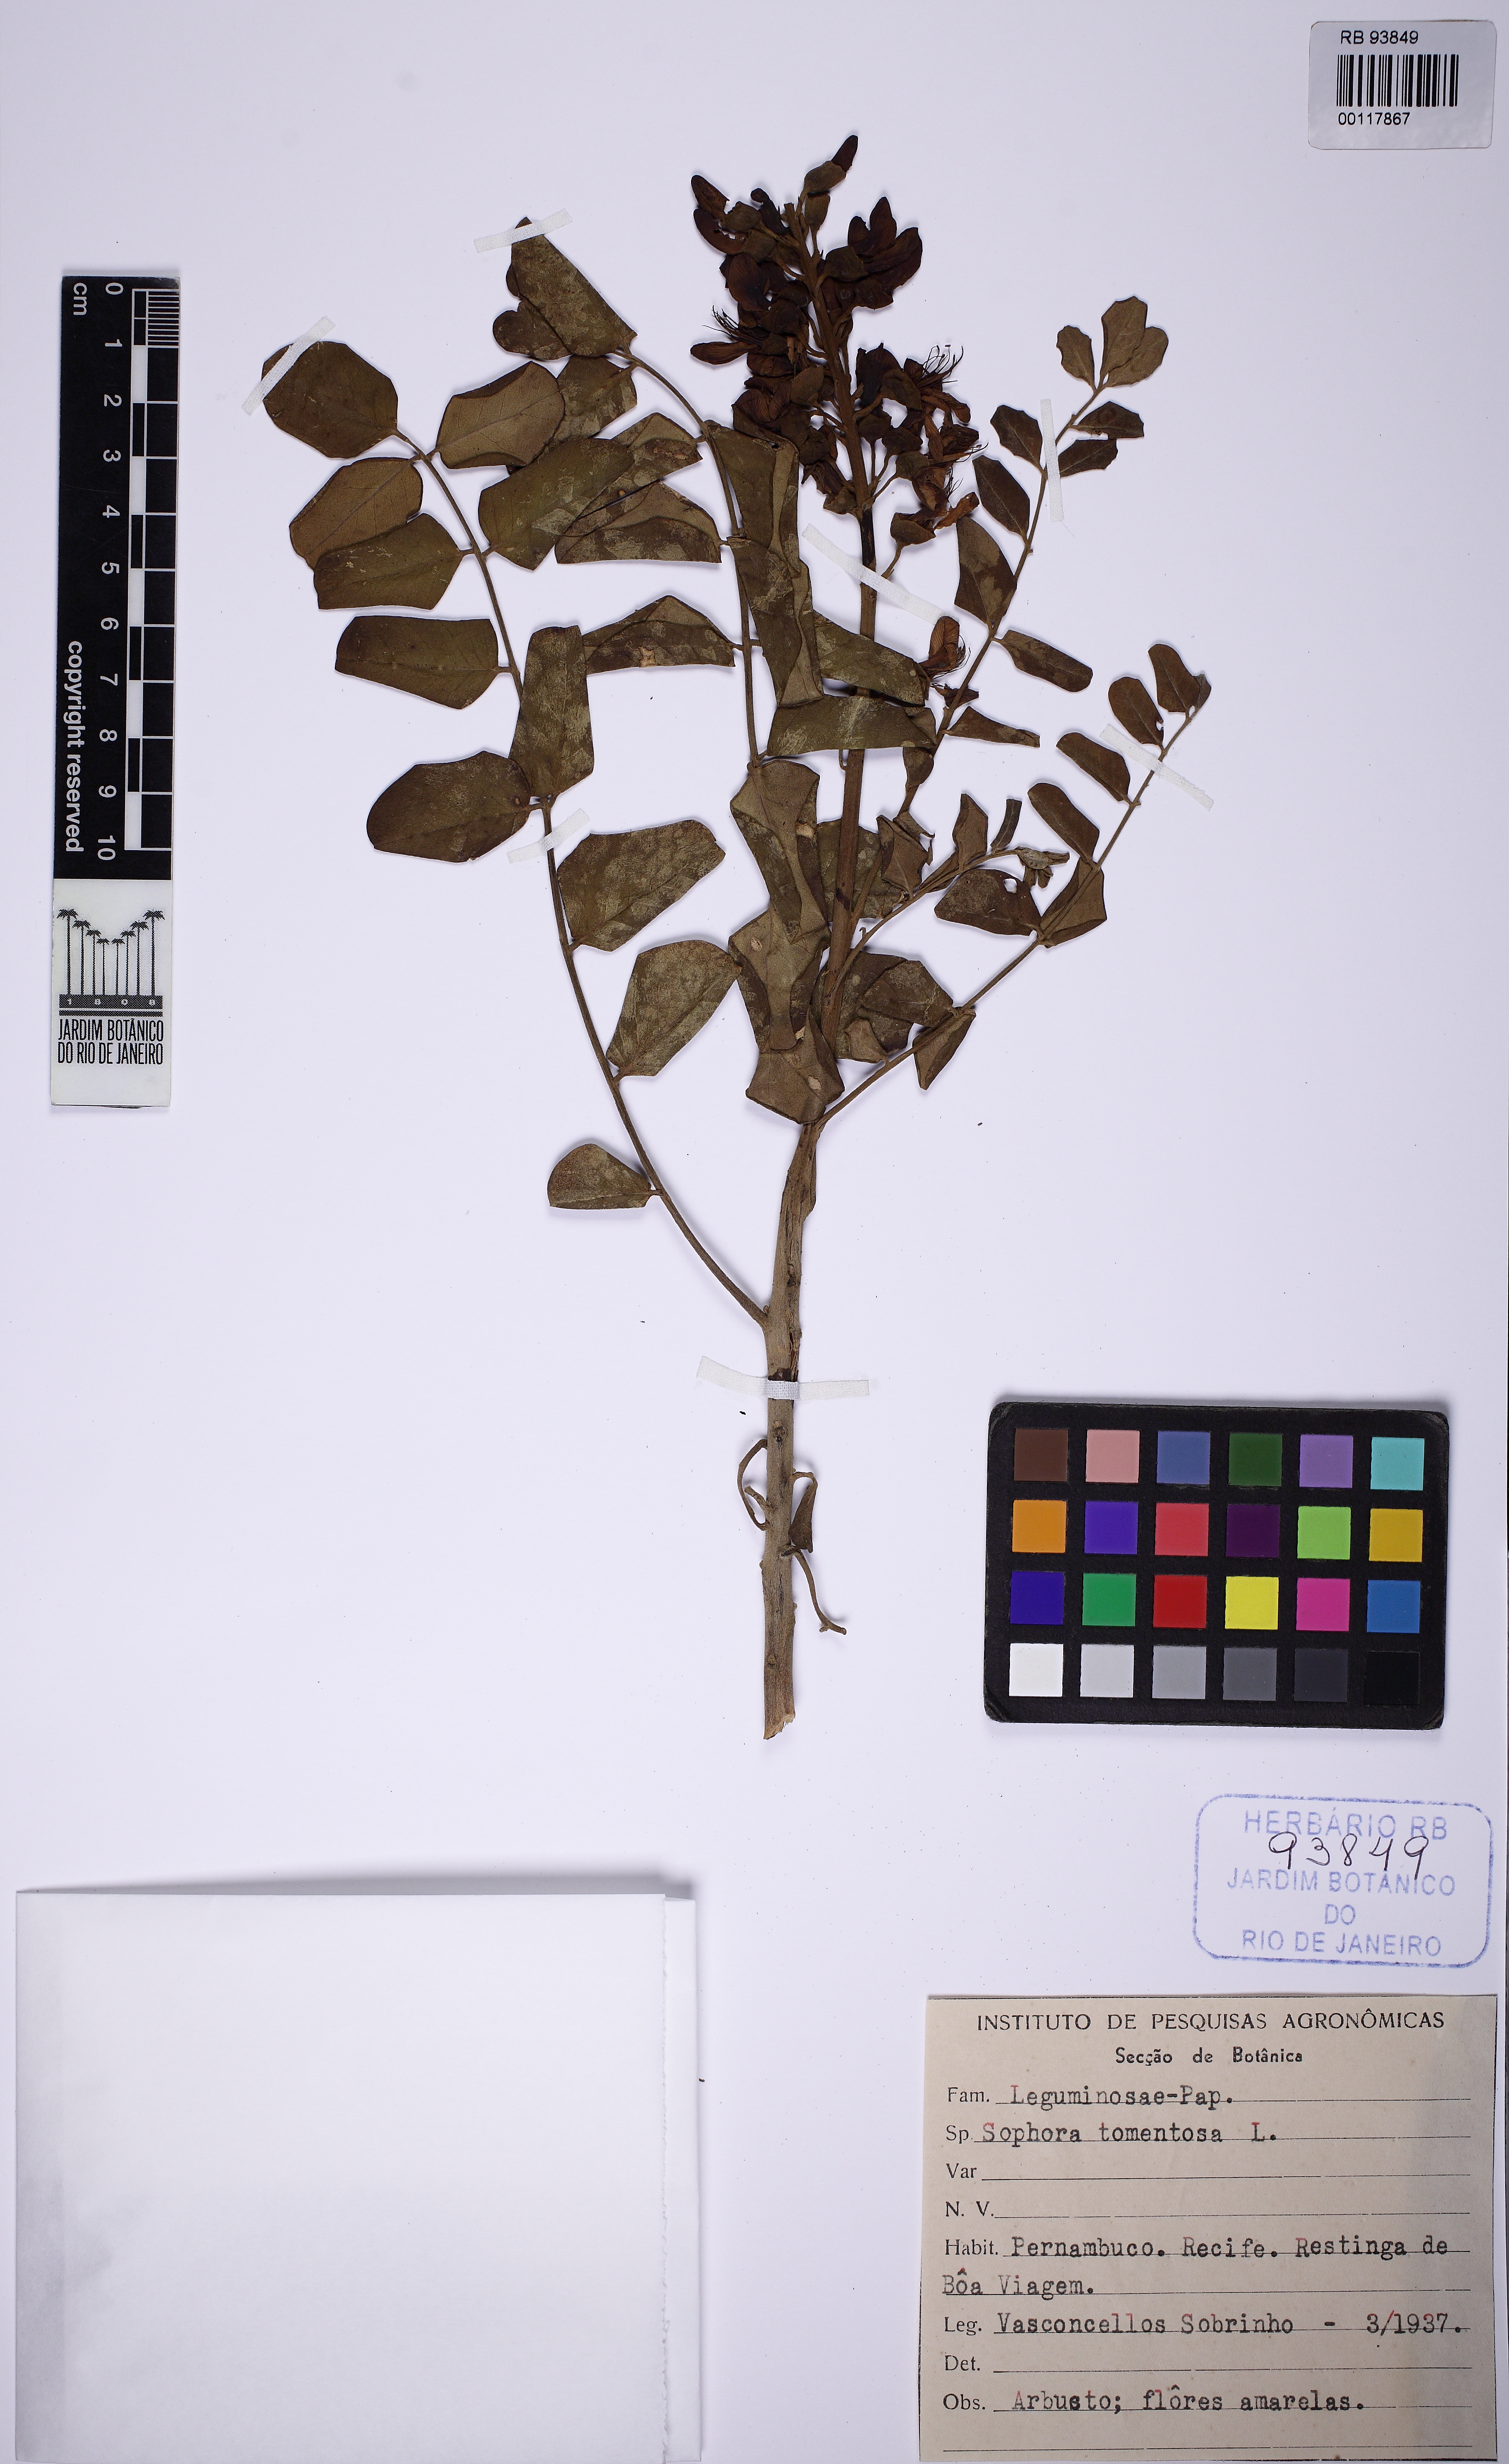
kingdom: Plantae
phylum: Tracheophyta
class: Magnoliopsida
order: Fabales
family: Fabaceae
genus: Sophora
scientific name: Sophora tomentosa
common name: Yellow necklacepod
